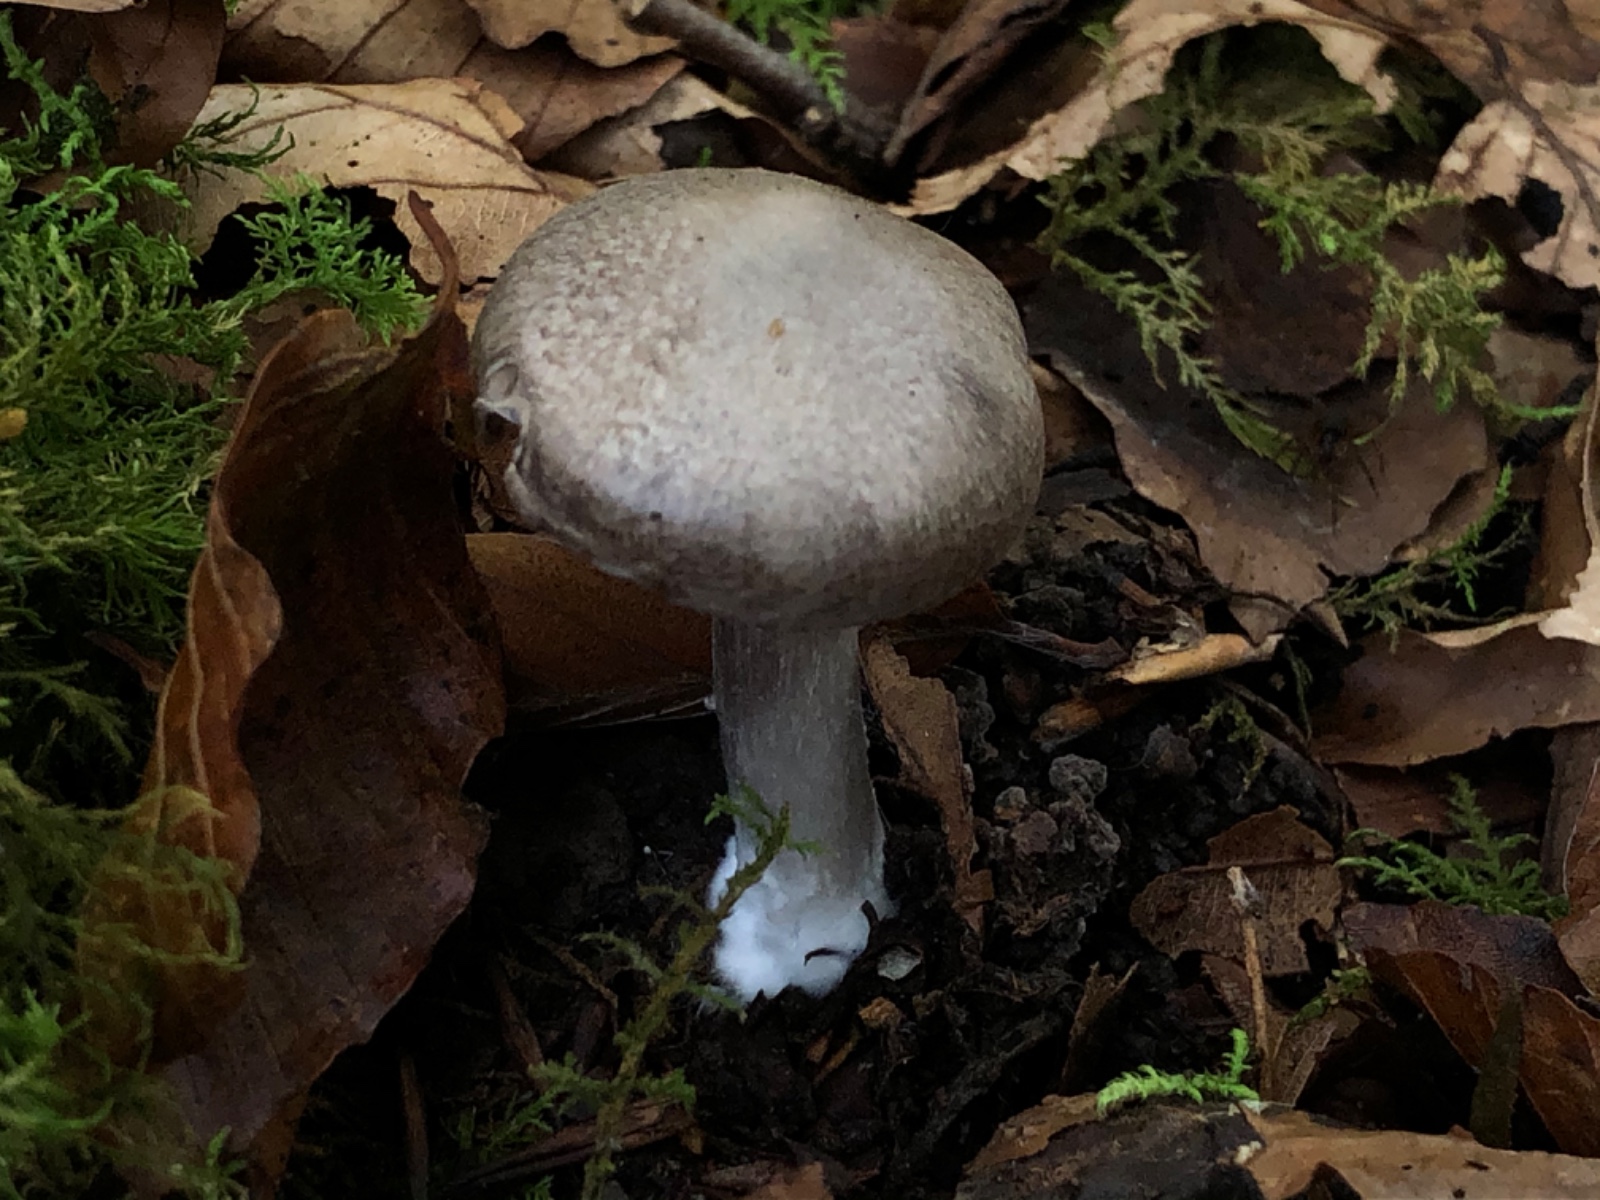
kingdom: Fungi
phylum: Basidiomycota
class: Agaricomycetes
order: Agaricales
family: Tricholomataceae
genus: Tricholoma
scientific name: Tricholoma scalpturatum
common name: gulplettet ridderhat
